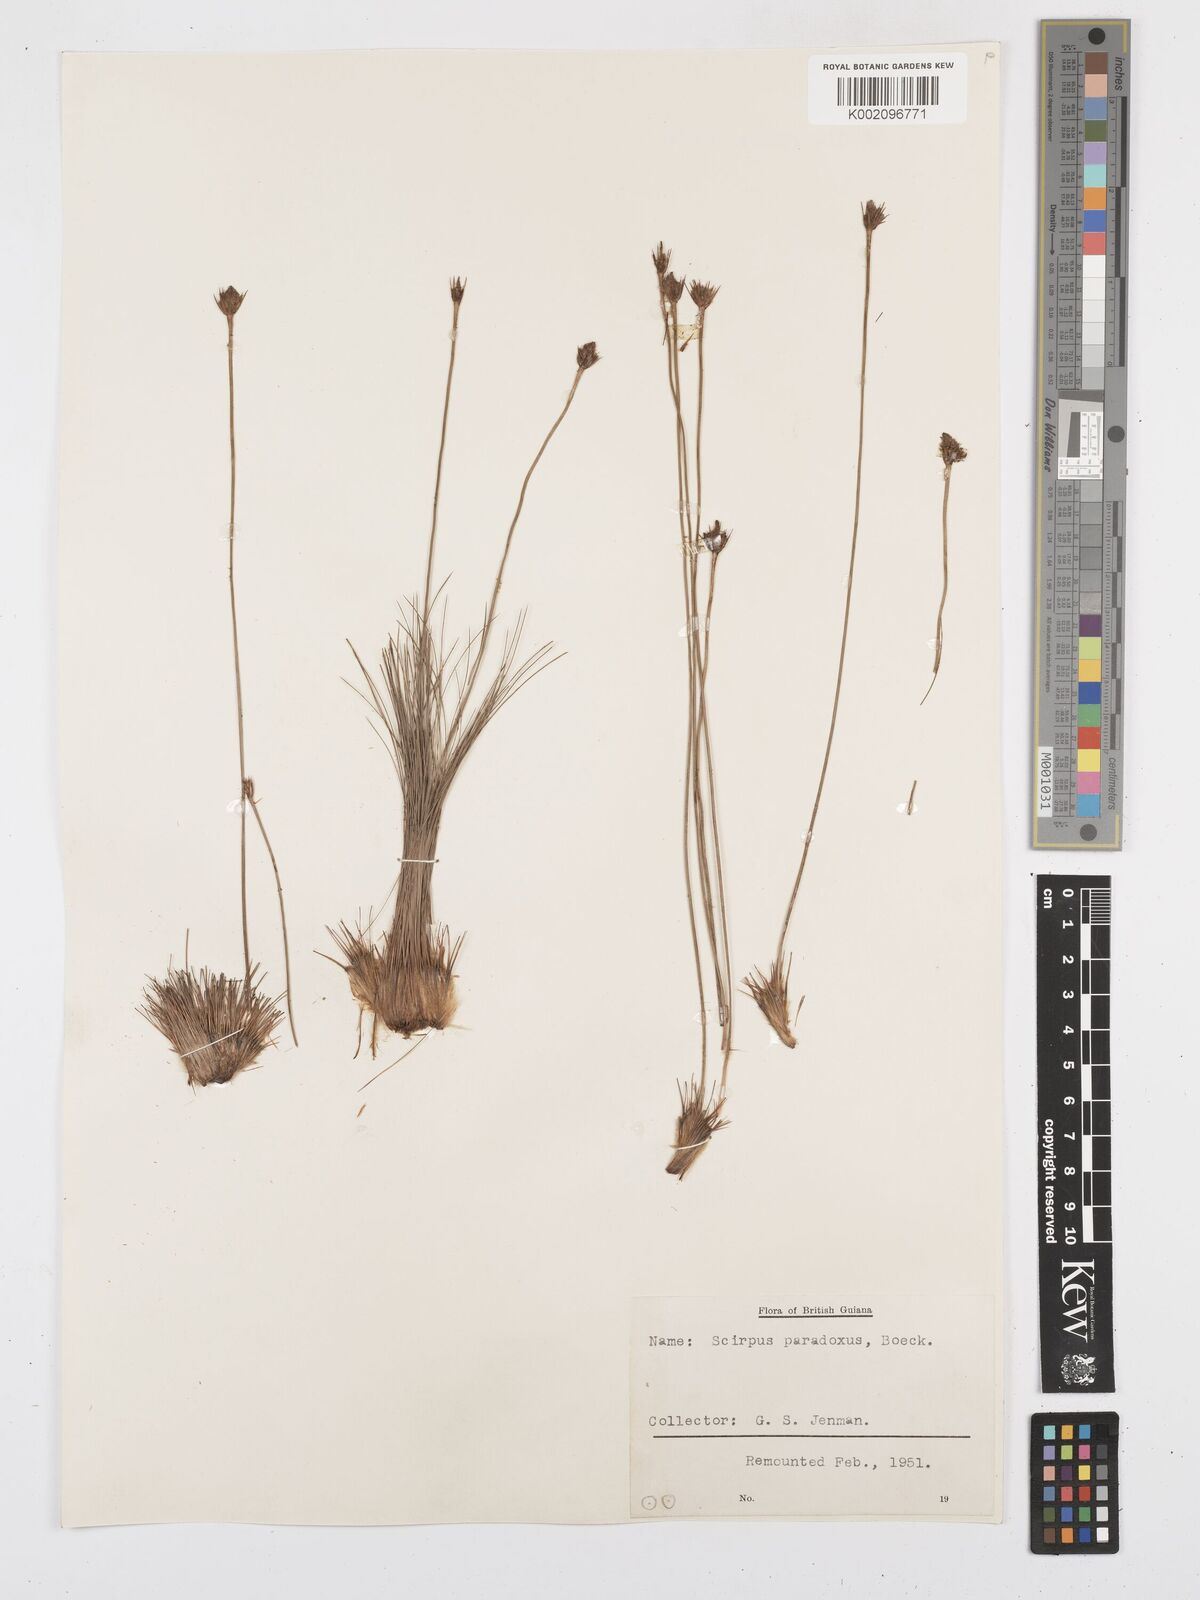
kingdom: Plantae
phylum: Tracheophyta
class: Liliopsida
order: Poales
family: Cyperaceae
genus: Bulbostylis
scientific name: Bulbostylis paradoxa
